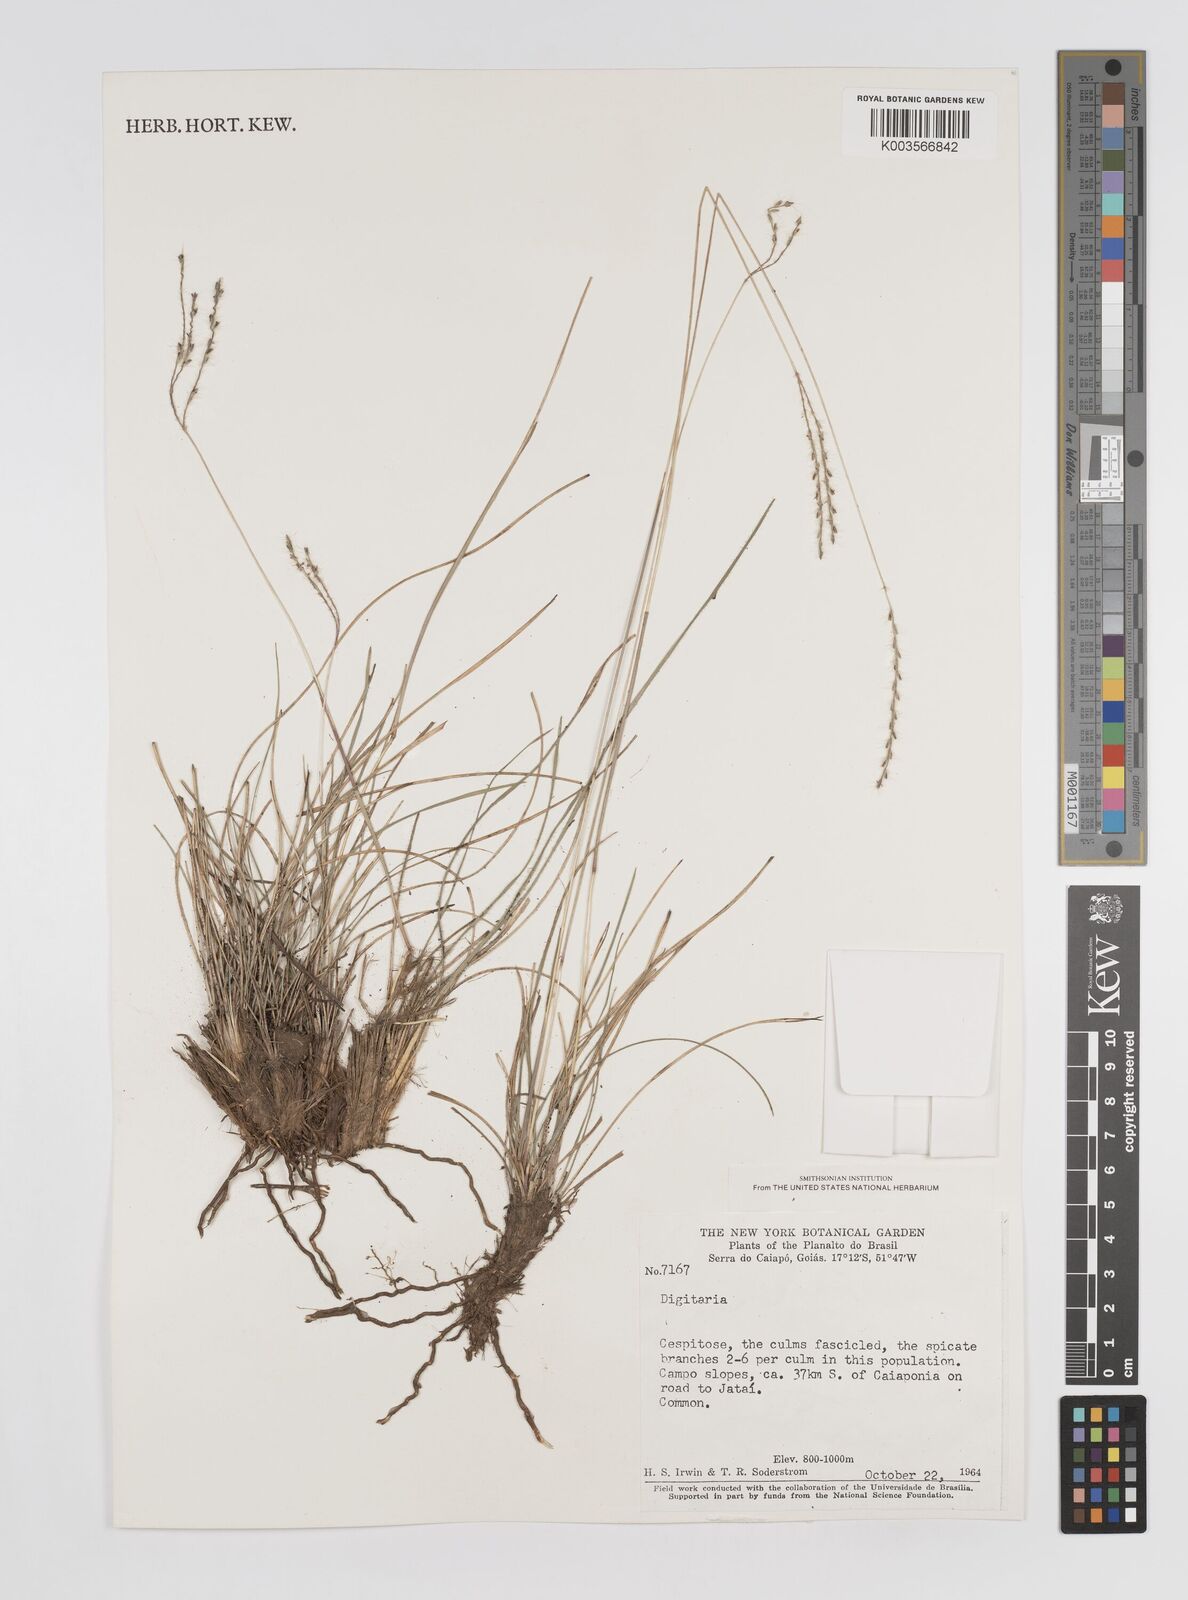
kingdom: Plantae
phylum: Tracheophyta
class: Liliopsida
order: Poales
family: Poaceae
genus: Axonopus
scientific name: Axonopus brasiliensis
